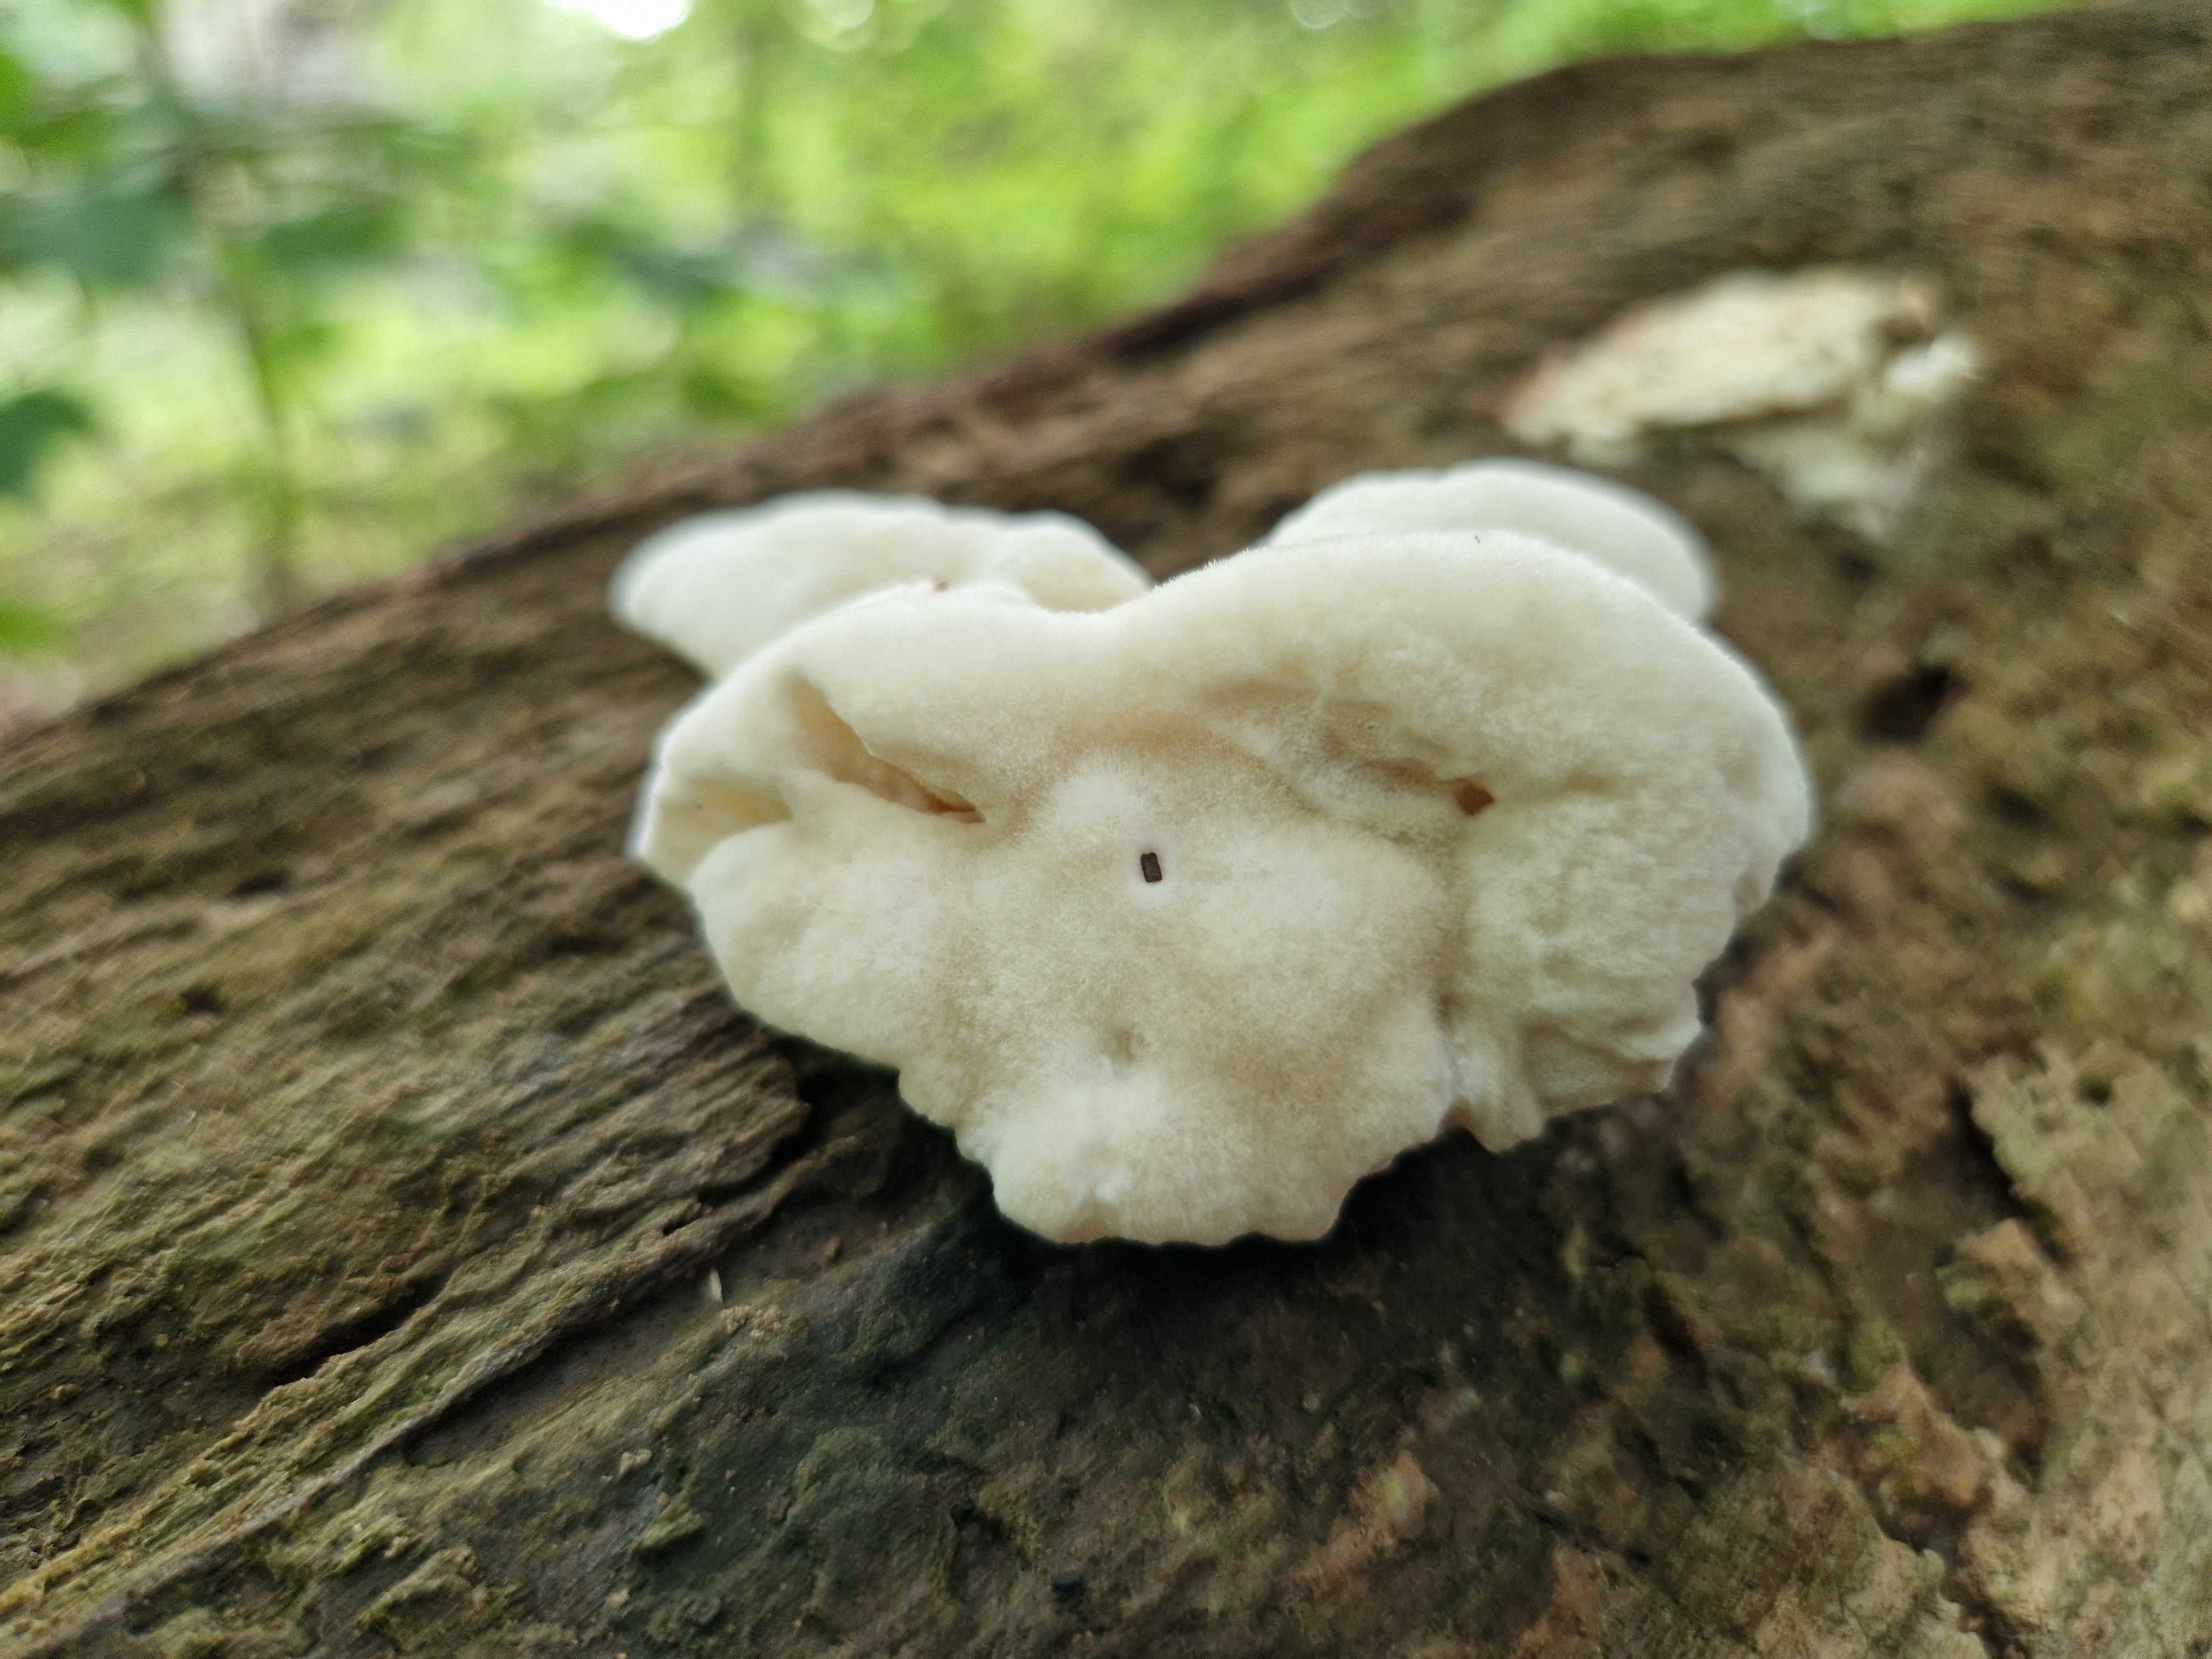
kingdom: Fungi
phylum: Basidiomycota
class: Agaricomycetes
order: Polyporales
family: Dacryobolaceae
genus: Postia
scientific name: Postia
